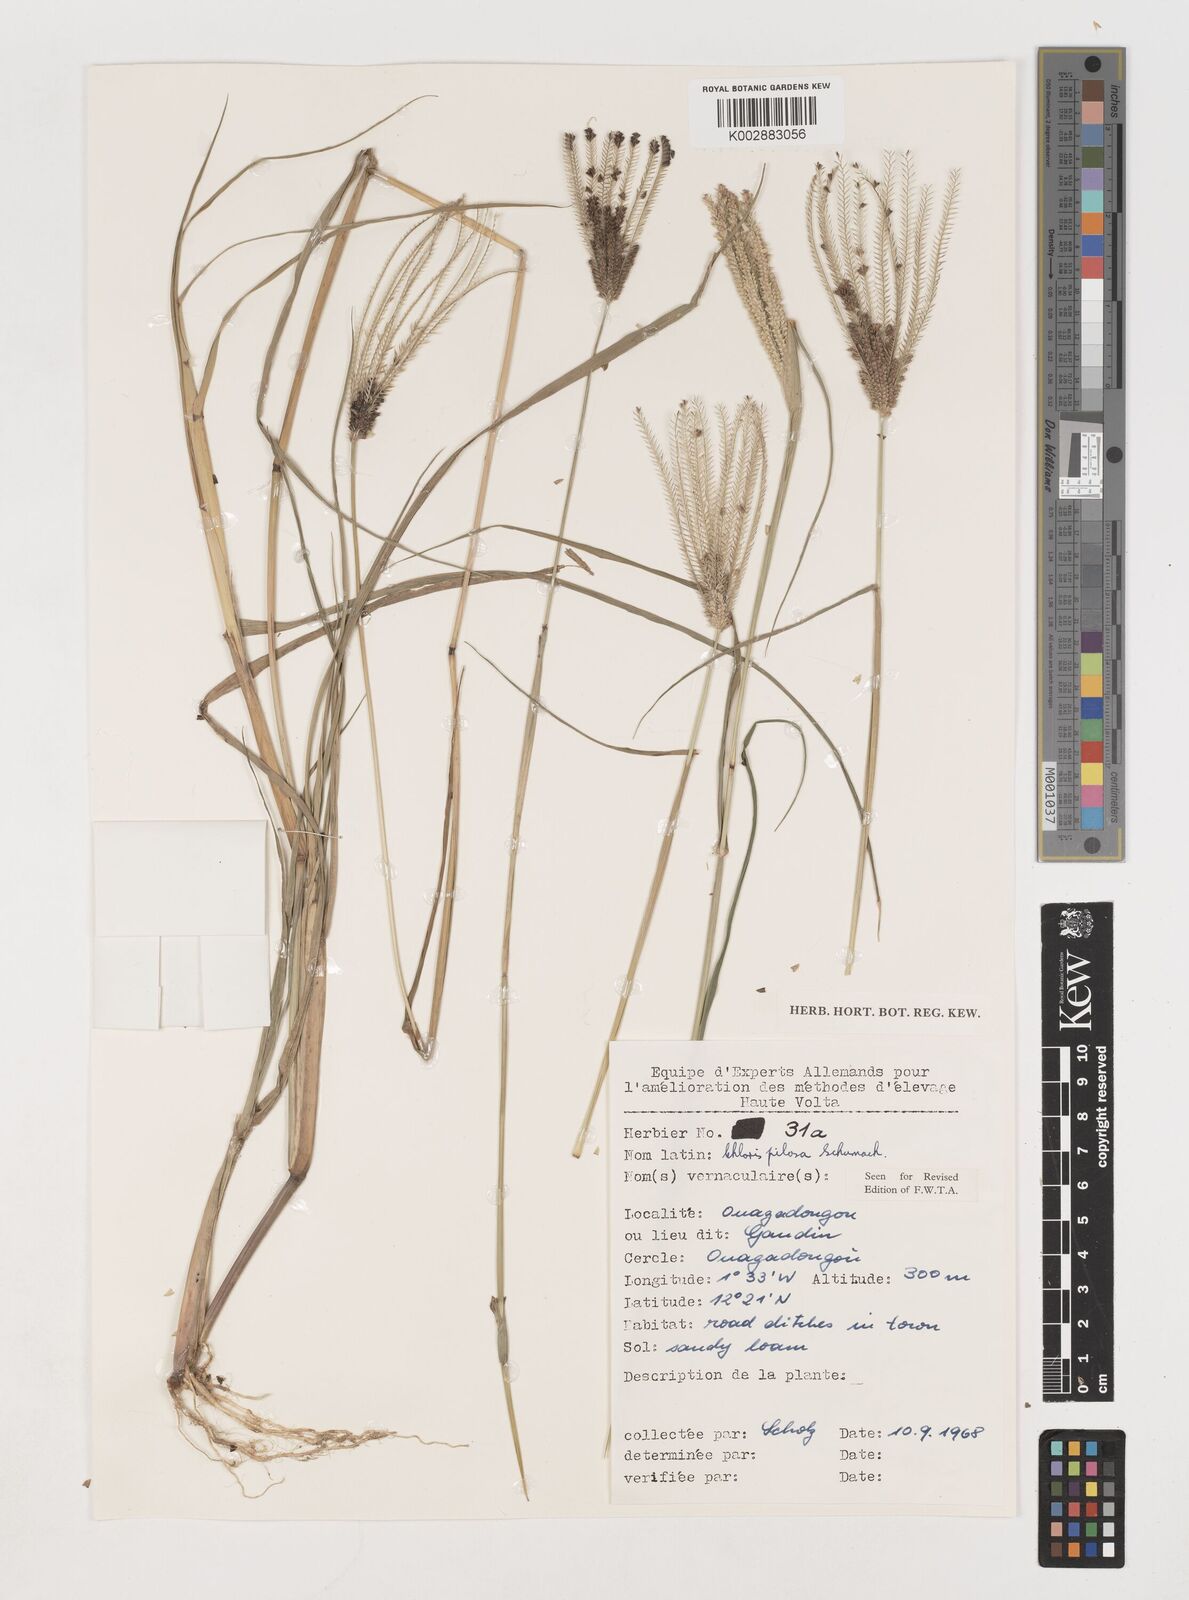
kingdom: Plantae
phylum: Tracheophyta
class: Liliopsida
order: Poales
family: Poaceae
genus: Chloris
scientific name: Chloris pilosa
